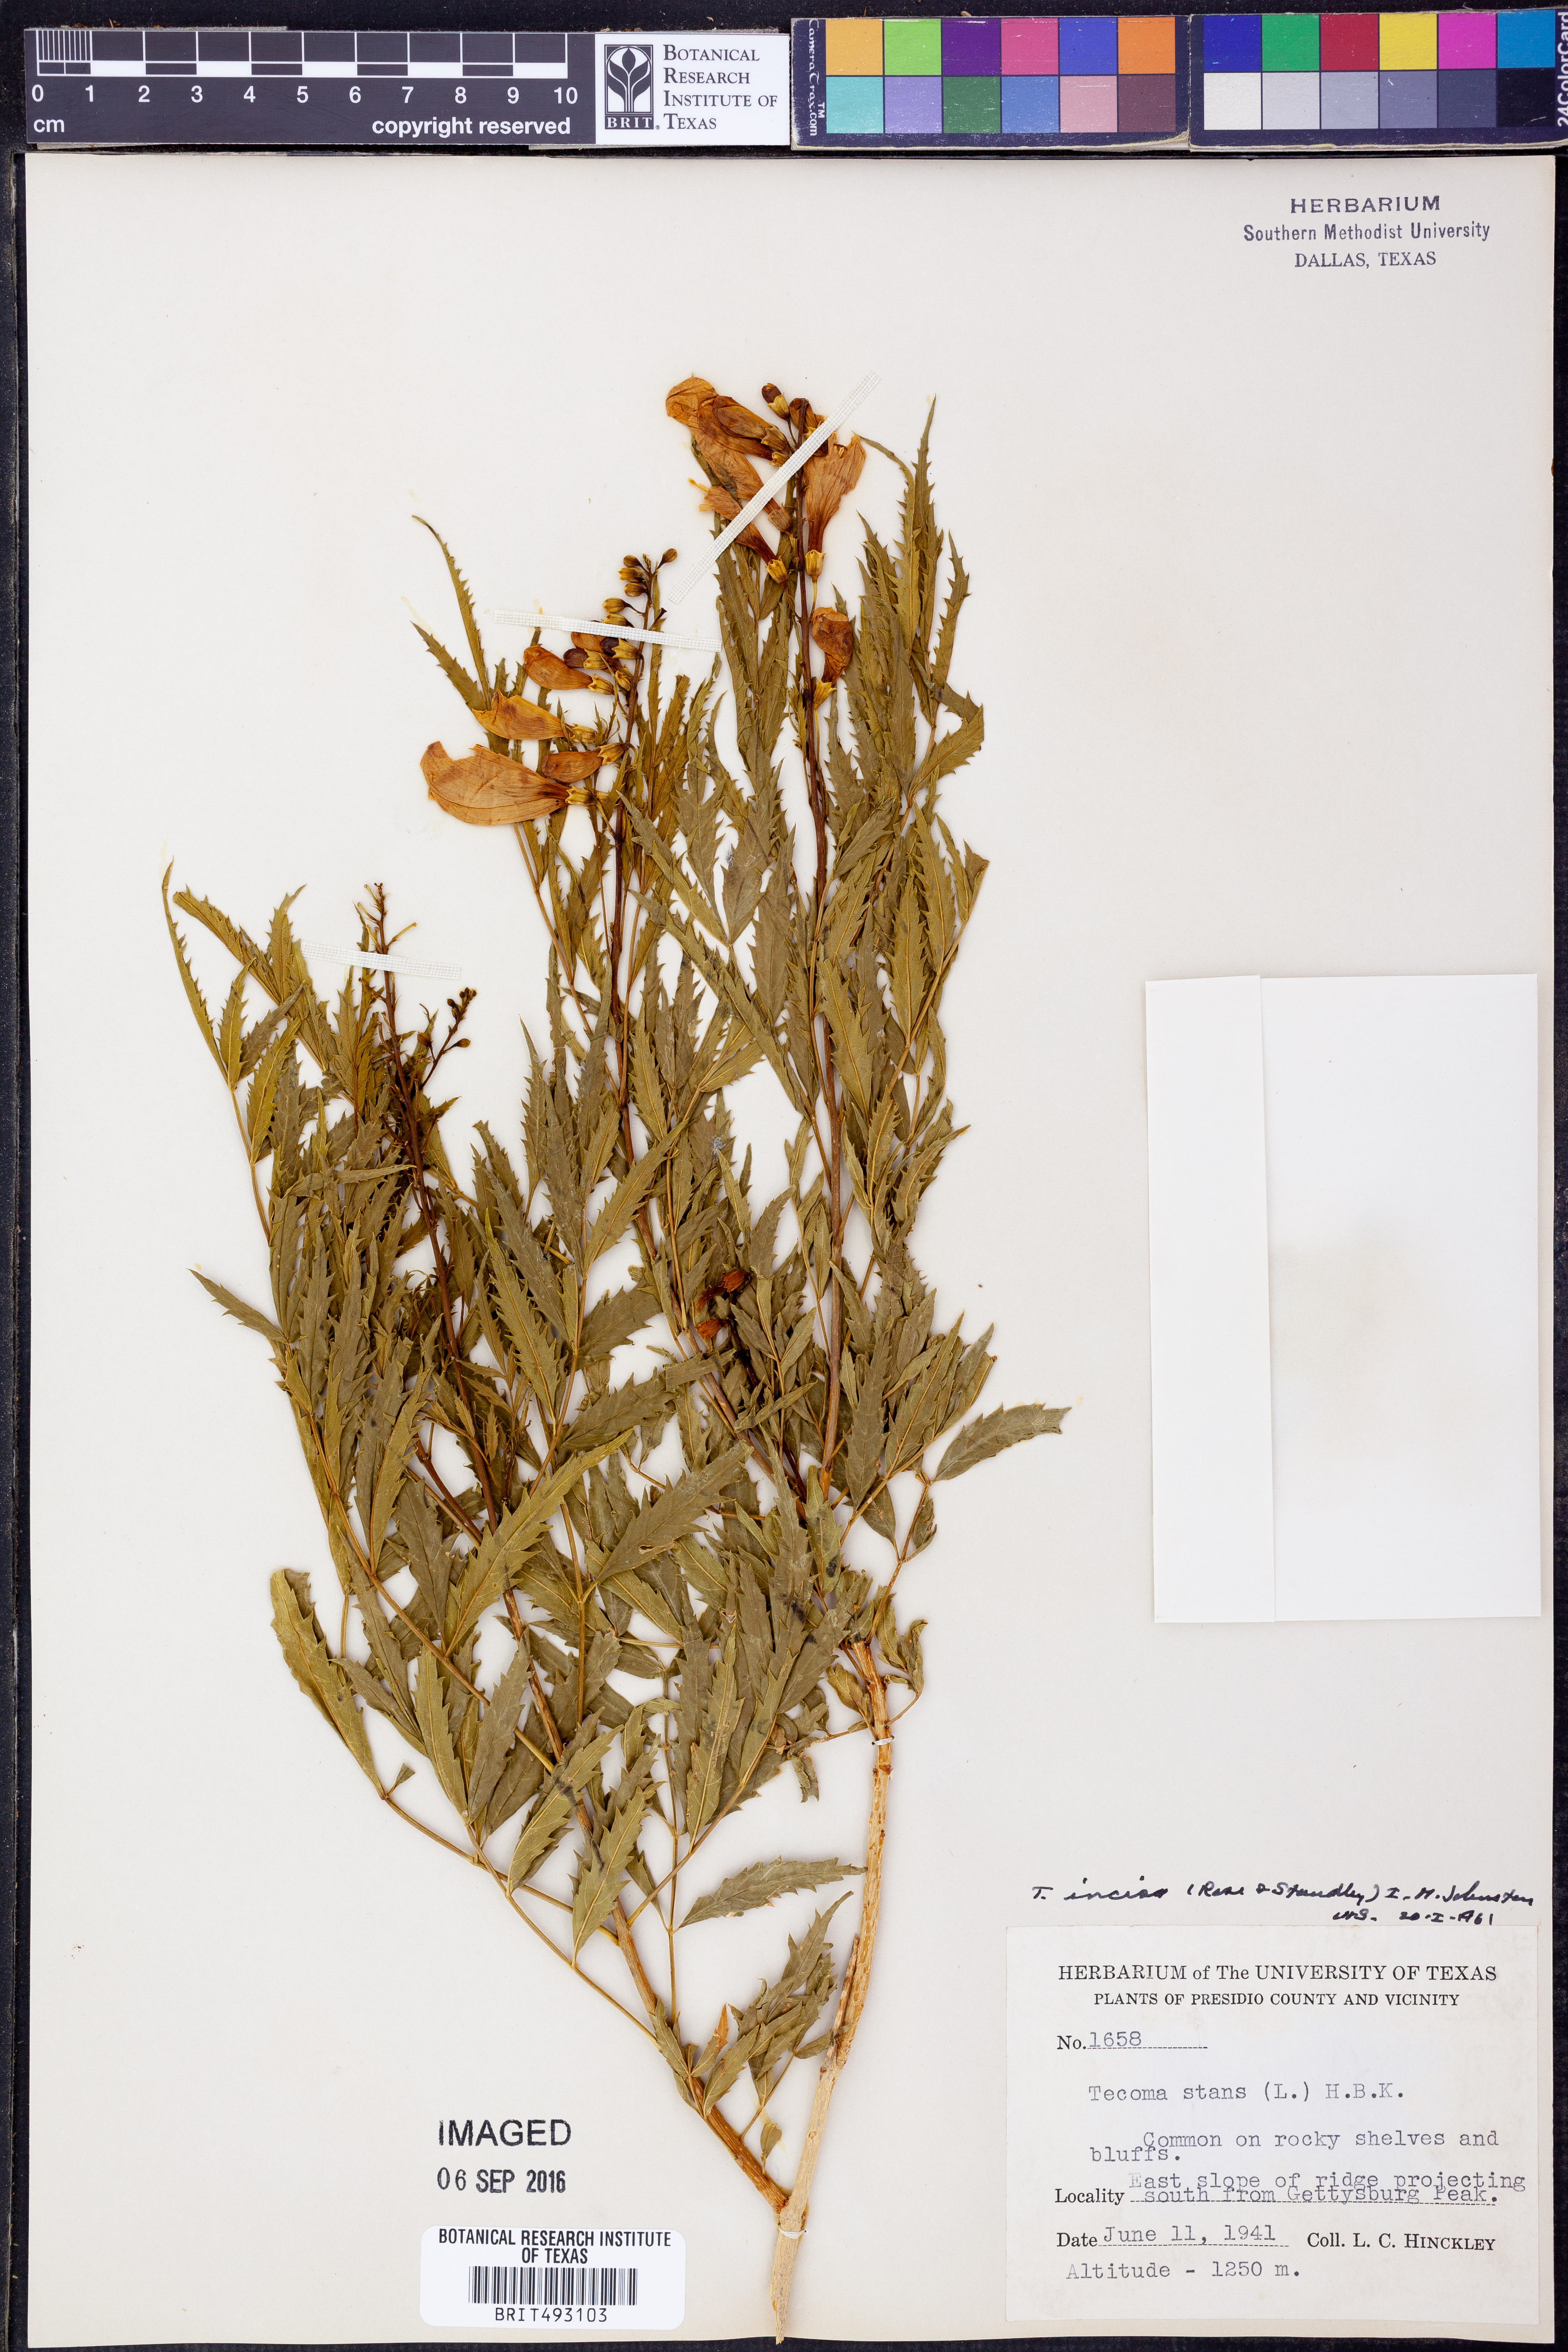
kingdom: Plantae
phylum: Tracheophyta
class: Magnoliopsida
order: Lamiales
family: Bignoniaceae
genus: Tecoma
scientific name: Tecoma stans
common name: Yellow trumpetbush
